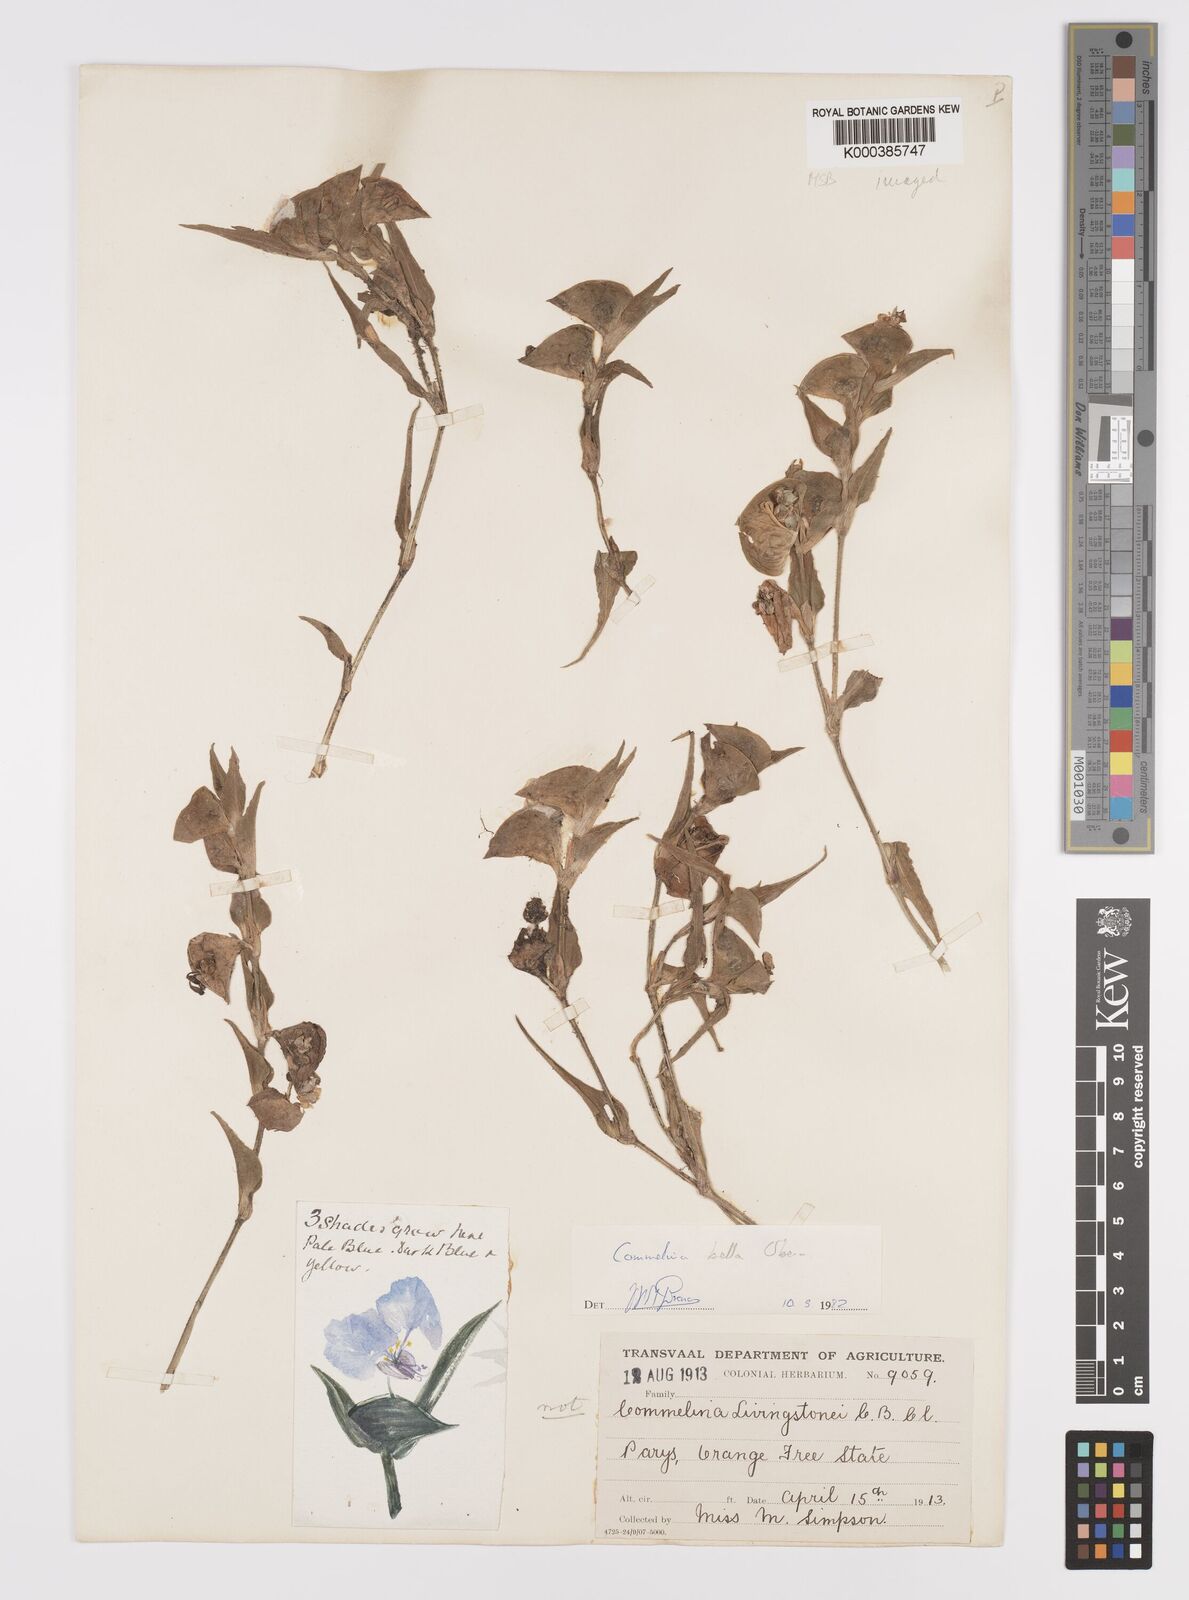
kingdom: Plantae
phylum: Tracheophyta
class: Liliopsida
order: Commelinales
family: Commelinaceae
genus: Commelina
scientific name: Commelina bella
